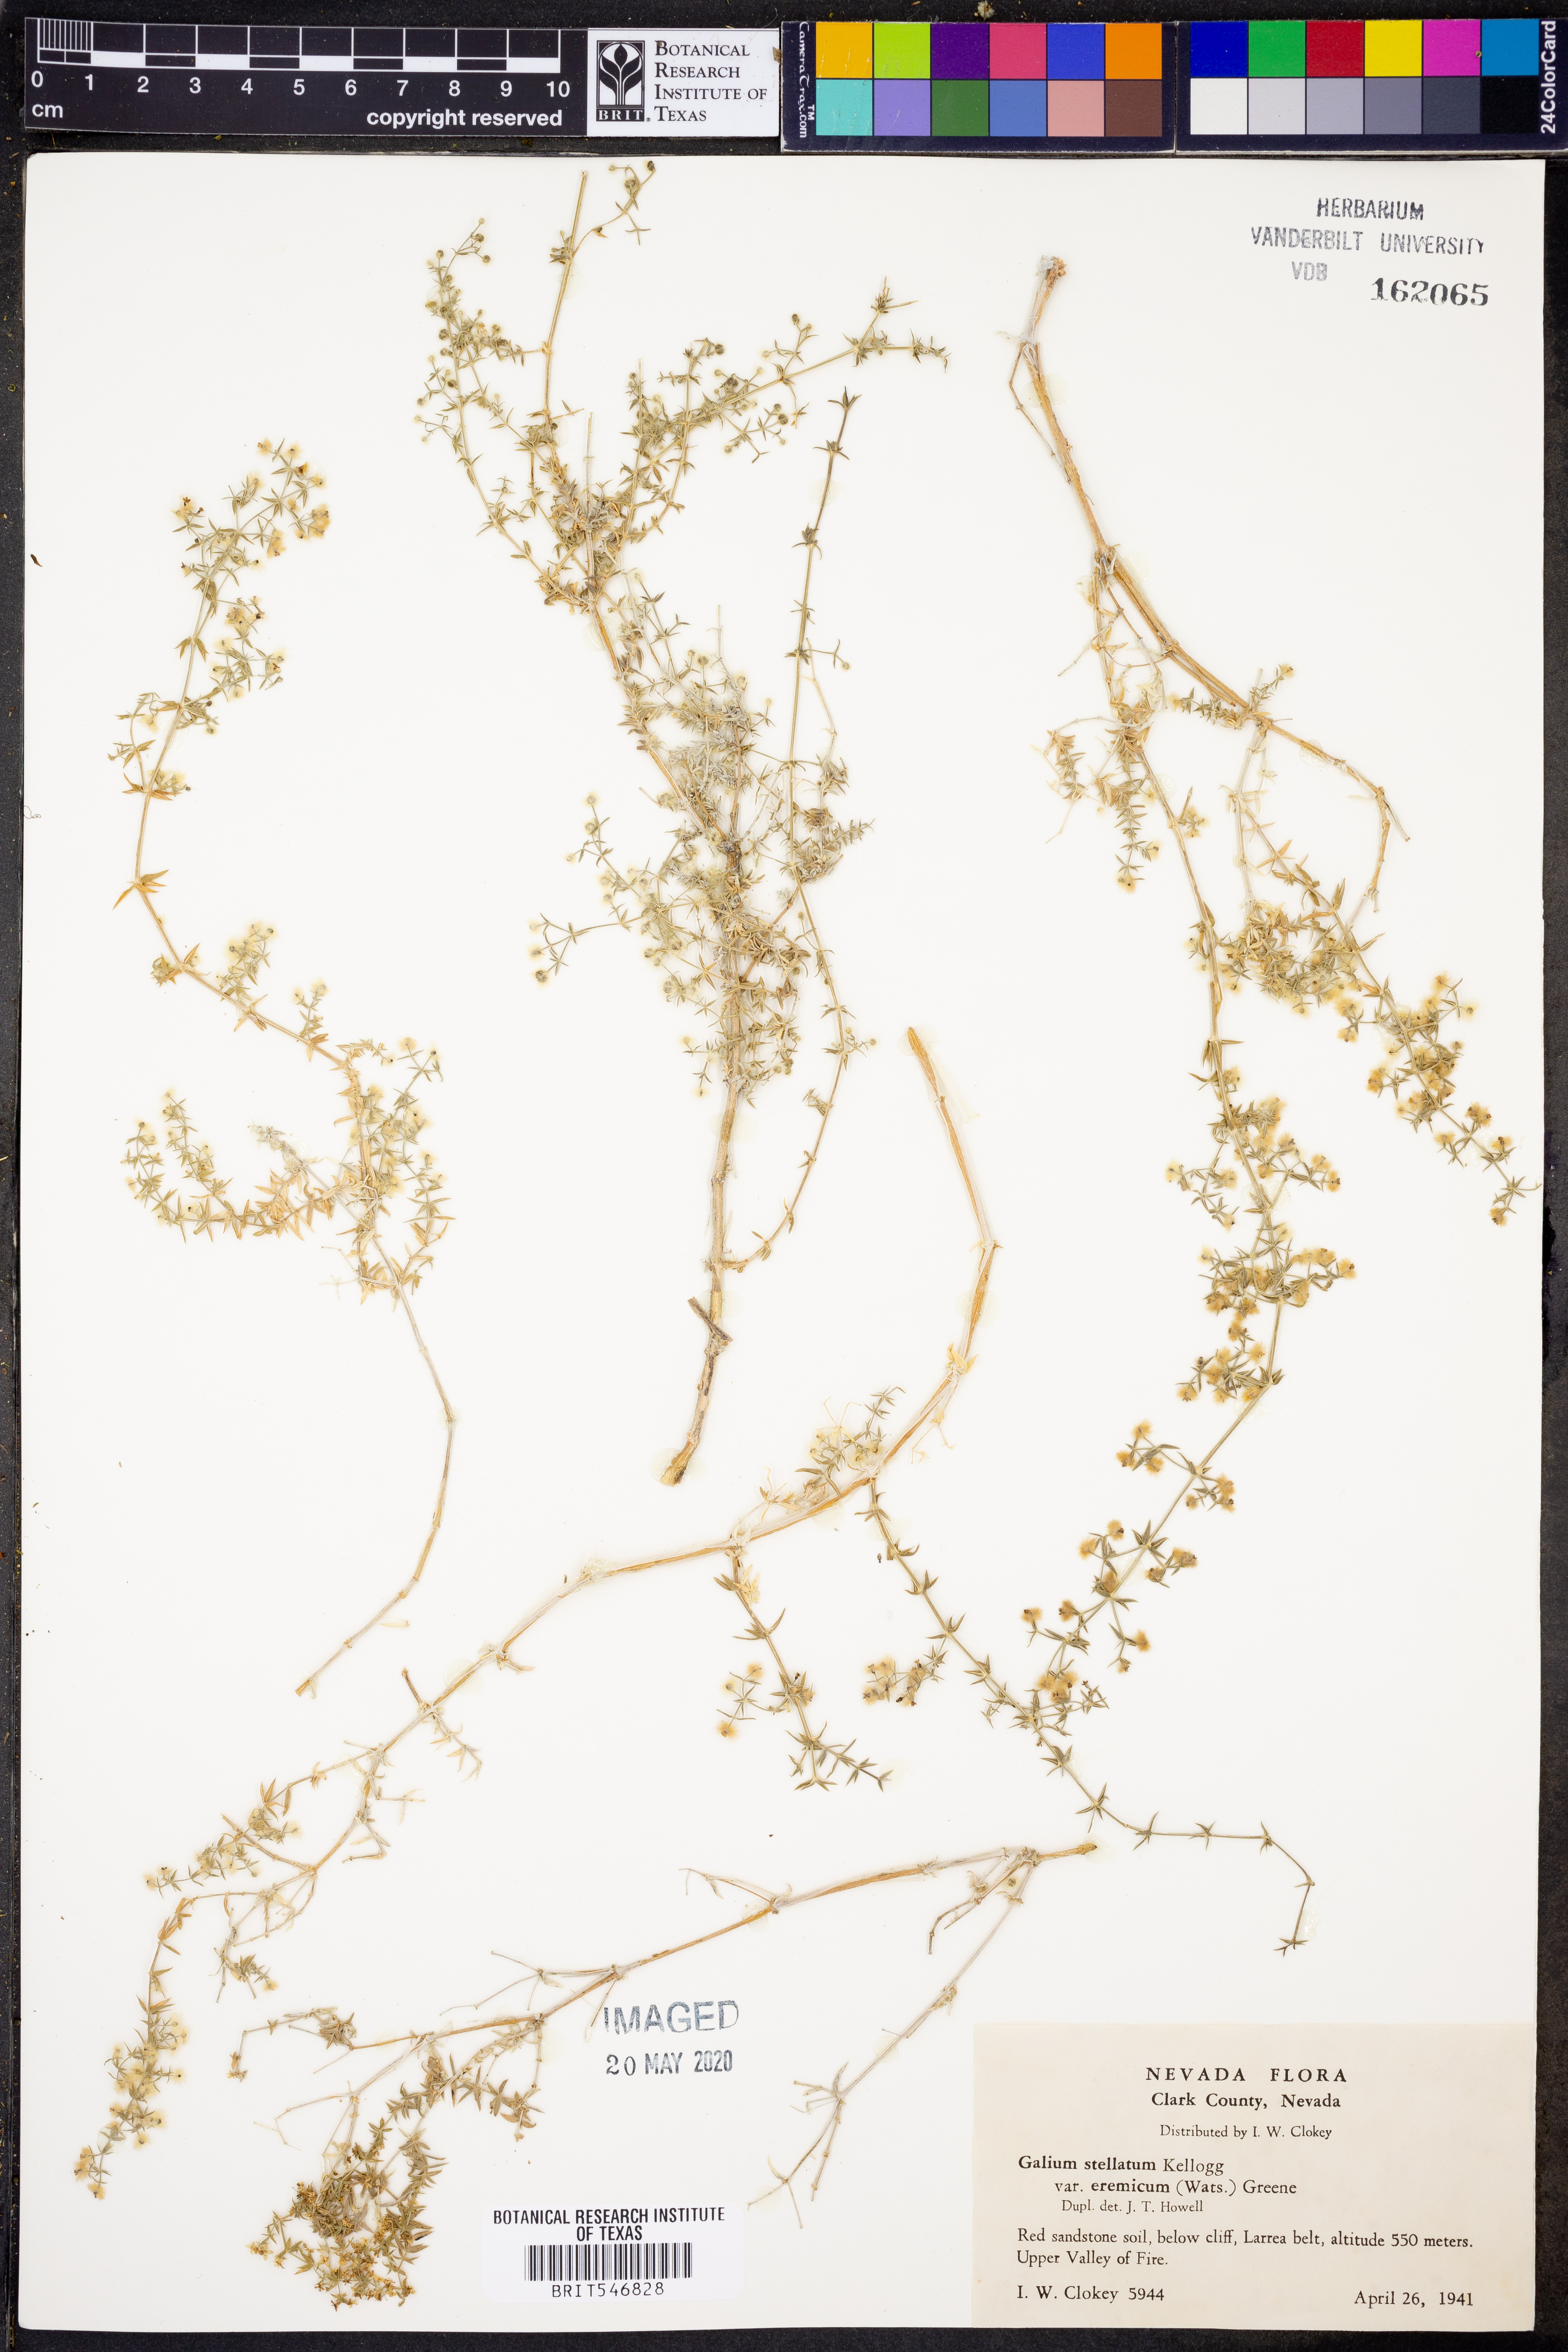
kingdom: Plantae
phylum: Tracheophyta
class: Magnoliopsida
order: Gentianales
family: Rubiaceae
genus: Galium
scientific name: Galium stellatum
